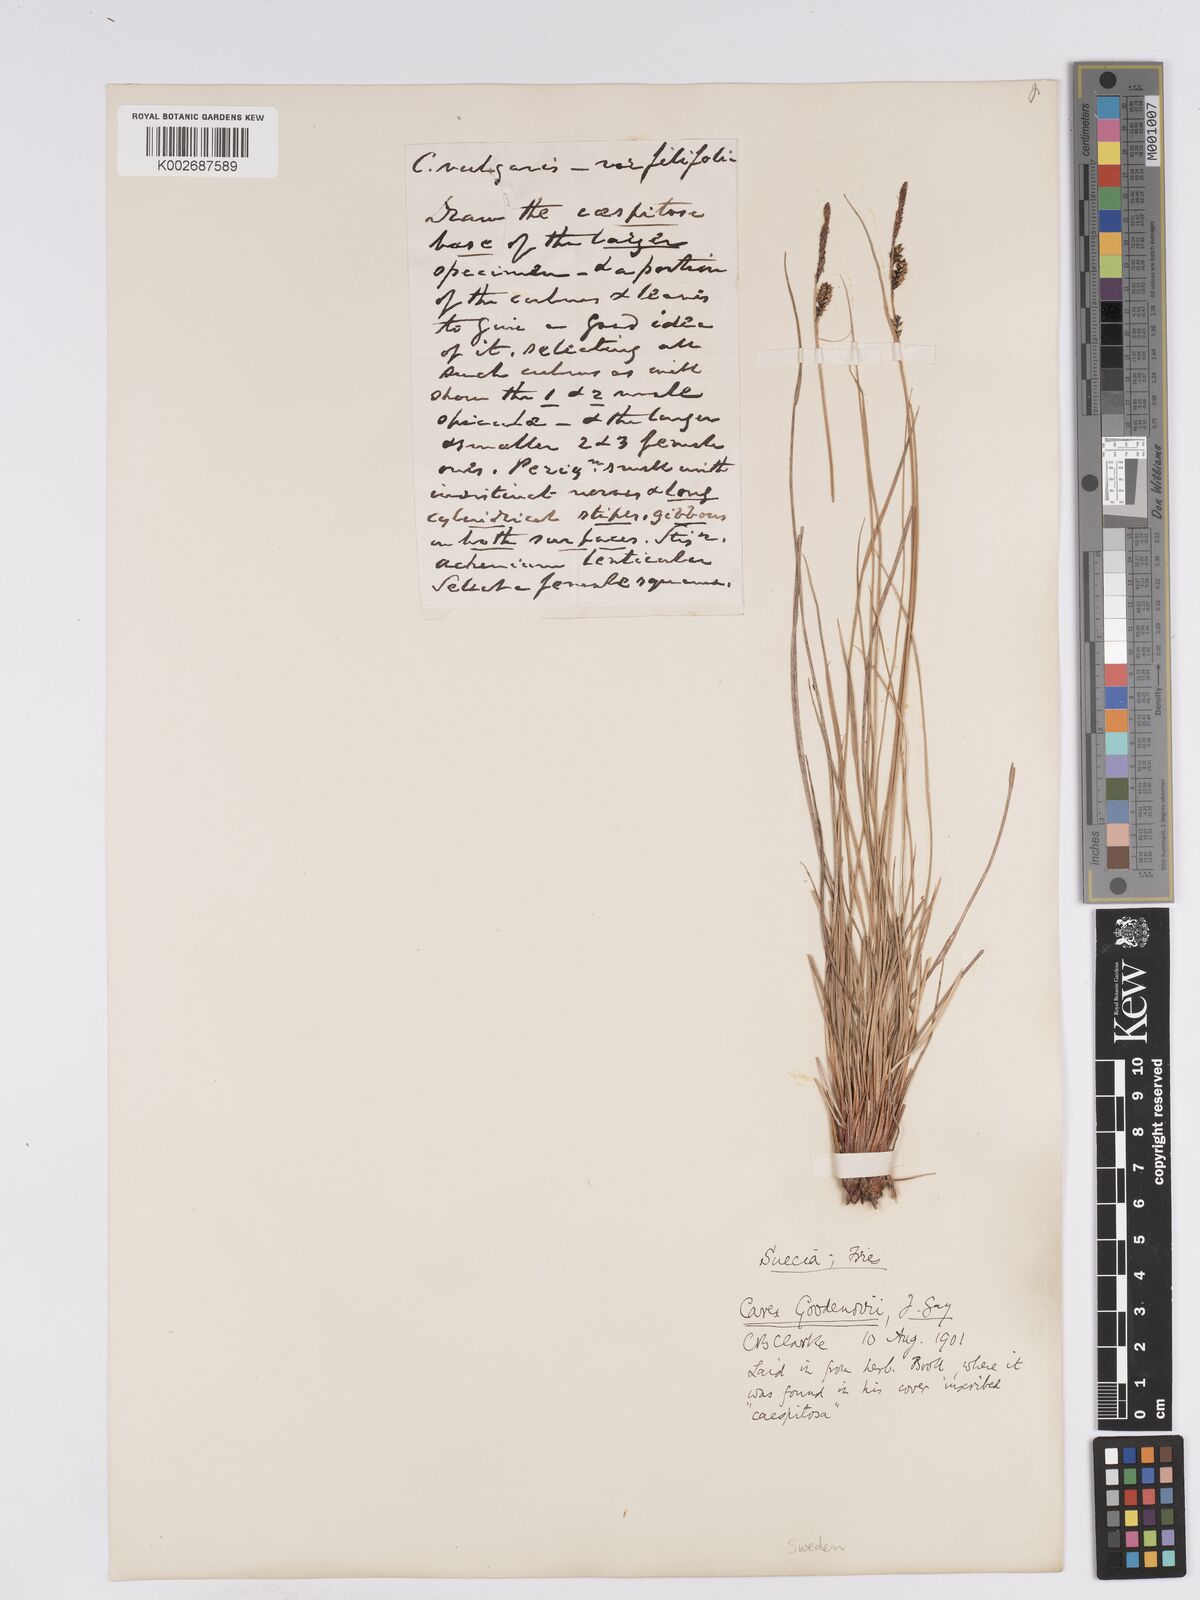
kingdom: Plantae
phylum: Tracheophyta
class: Liliopsida
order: Poales
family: Cyperaceae
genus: Carex
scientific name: Carex nigra
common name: Common sedge
